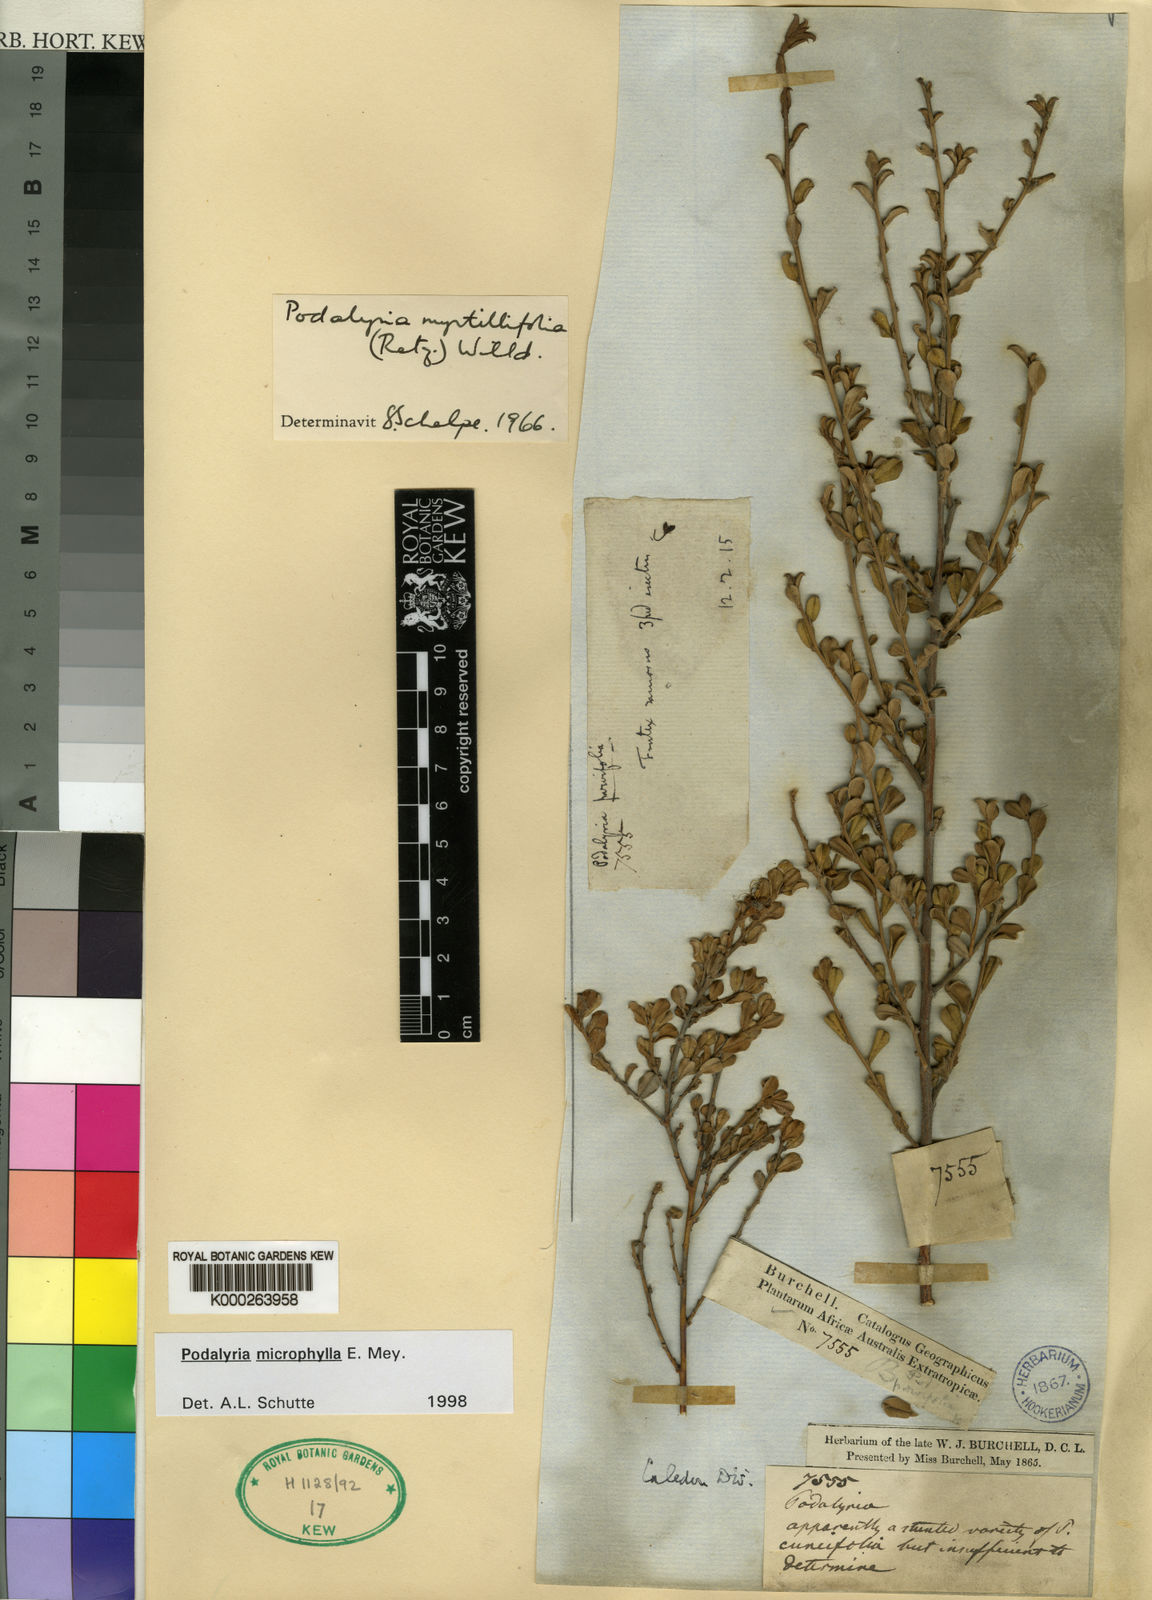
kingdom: Plantae
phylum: Tracheophyta
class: Magnoliopsida
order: Fabales
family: Fabaceae
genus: Podalyria
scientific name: Podalyria microphylla
